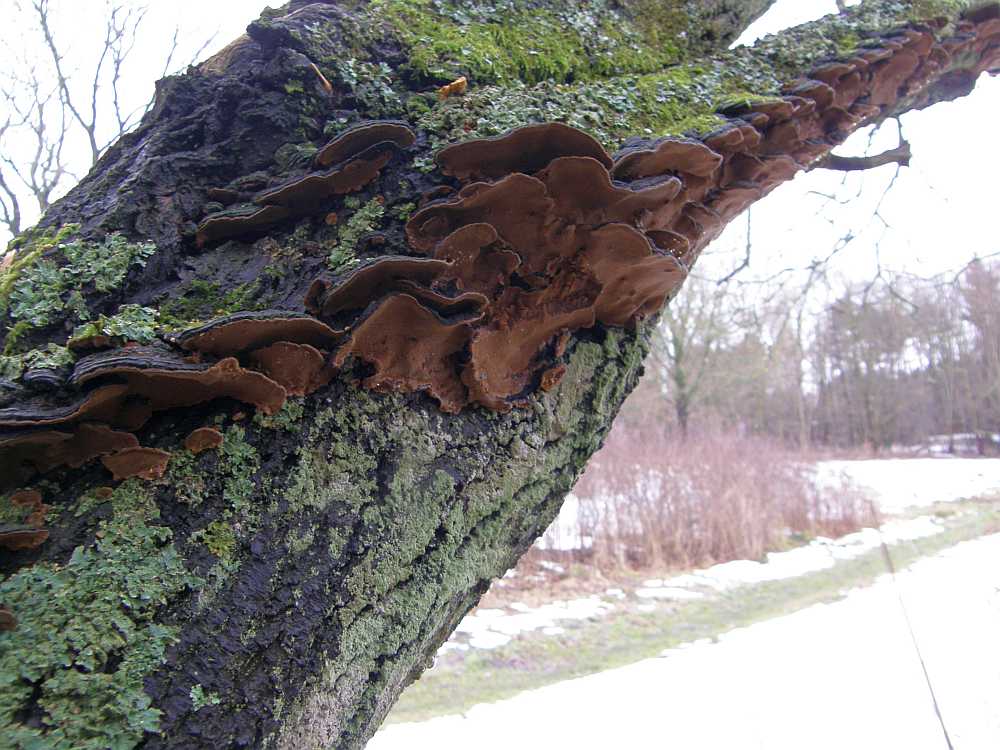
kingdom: Fungi
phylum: Basidiomycota
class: Agaricomycetes
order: Hymenochaetales
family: Hymenochaetaceae
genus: Phellinopsis
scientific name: Phellinopsis conchata
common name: pile-ildporesvamp
